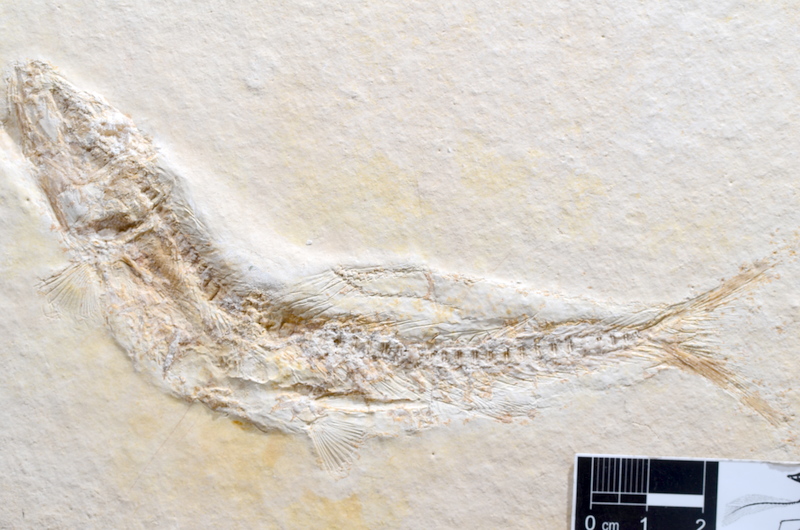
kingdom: Animalia
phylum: Chordata
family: Ascalaboidae
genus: Tharsis
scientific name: Tharsis dubius
